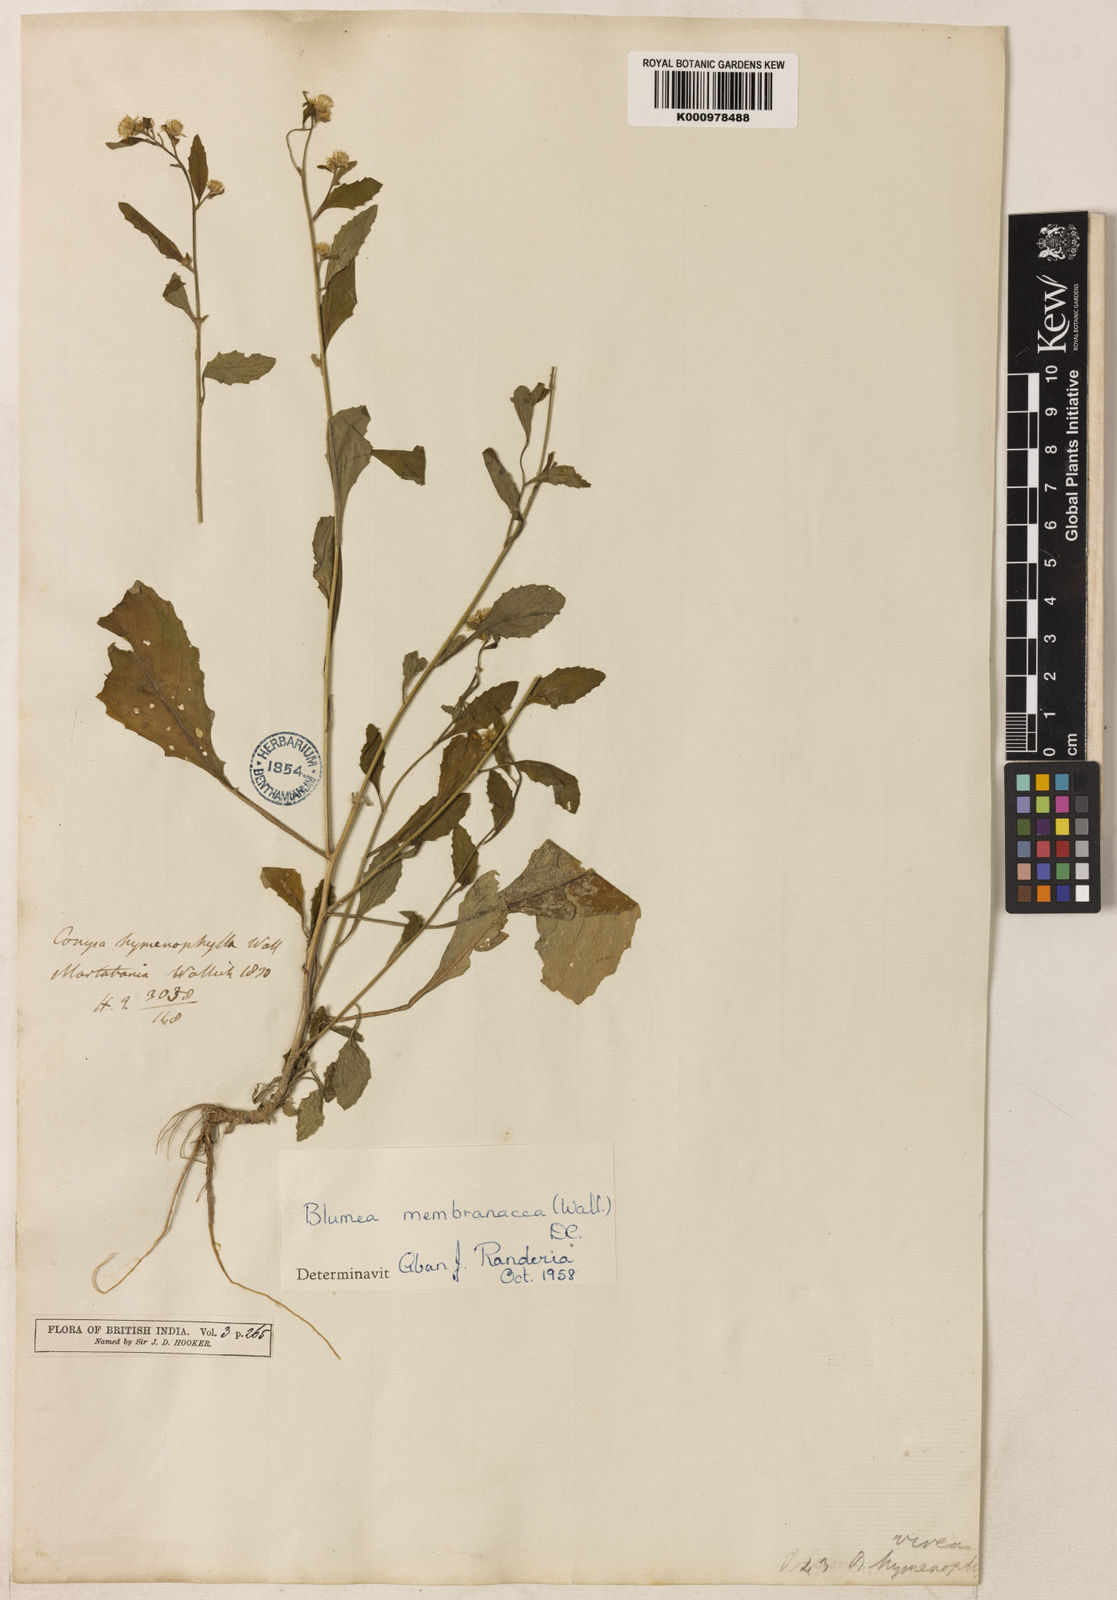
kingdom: Plantae
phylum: Tracheophyta
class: Magnoliopsida
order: Asterales
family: Asteraceae
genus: Blumea
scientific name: Blumea virens
